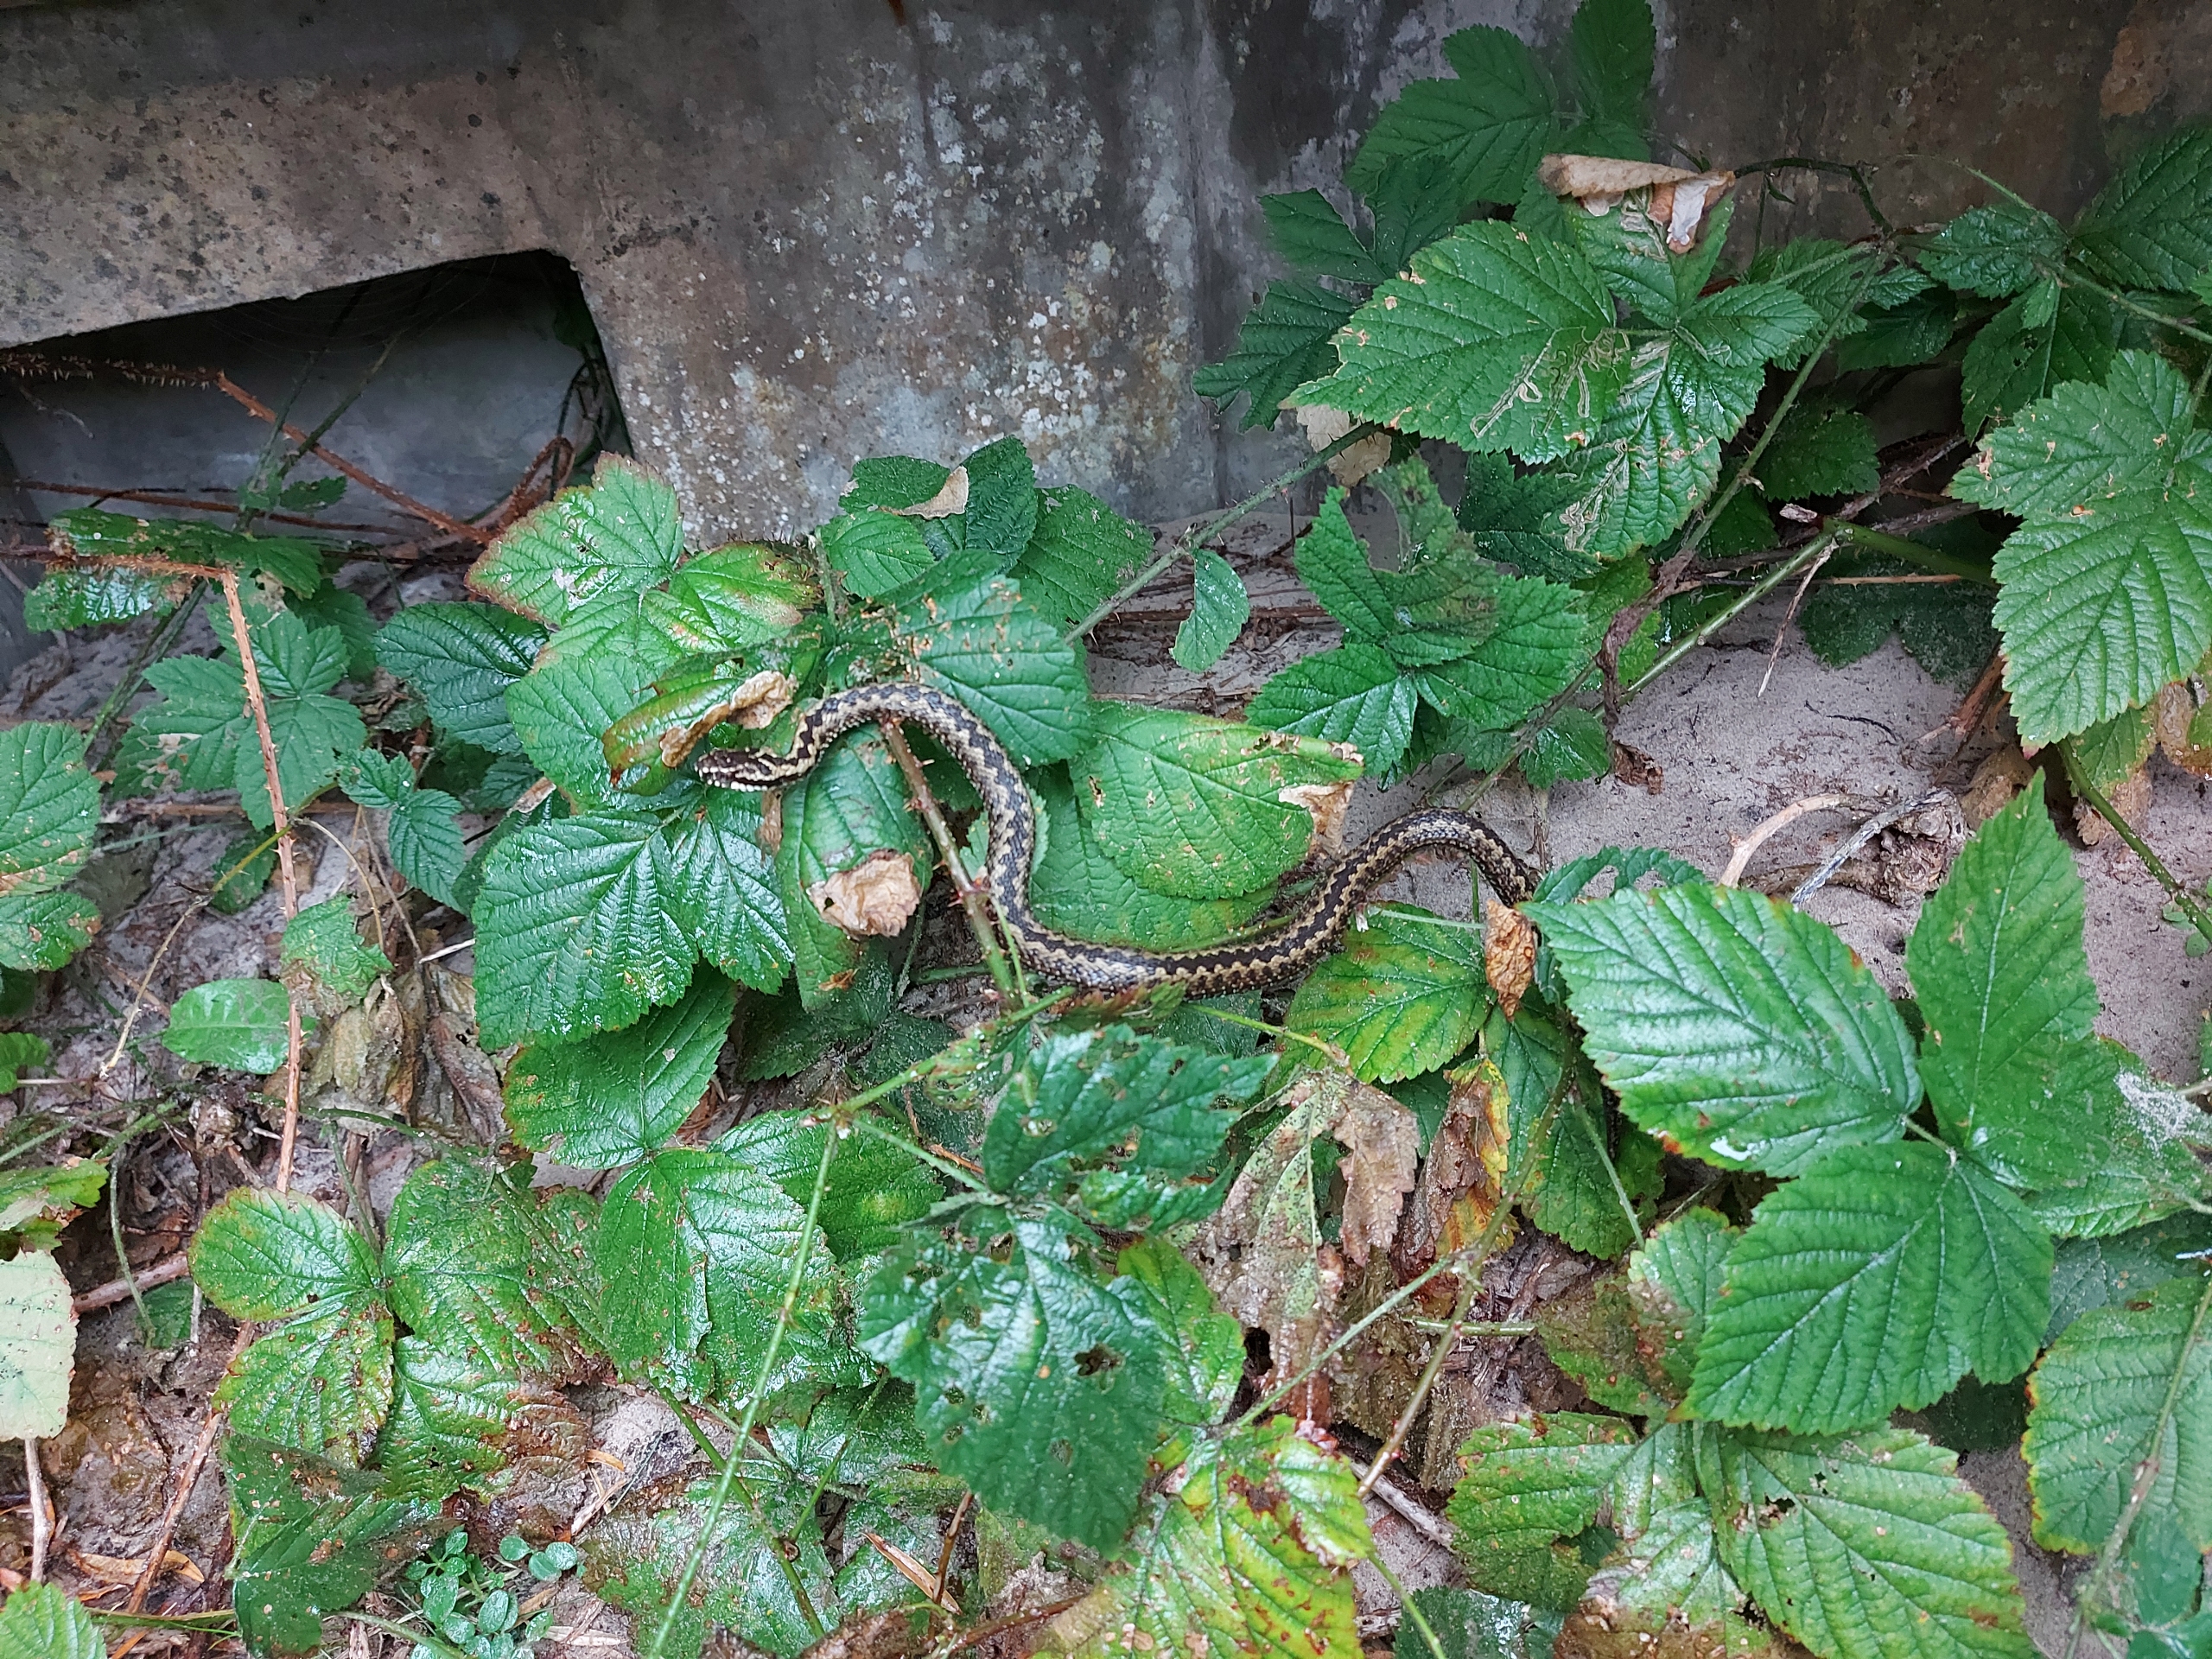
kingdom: Animalia
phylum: Chordata
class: Squamata
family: Viperidae
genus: Vipera
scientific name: Vipera berus
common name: Hugorm
